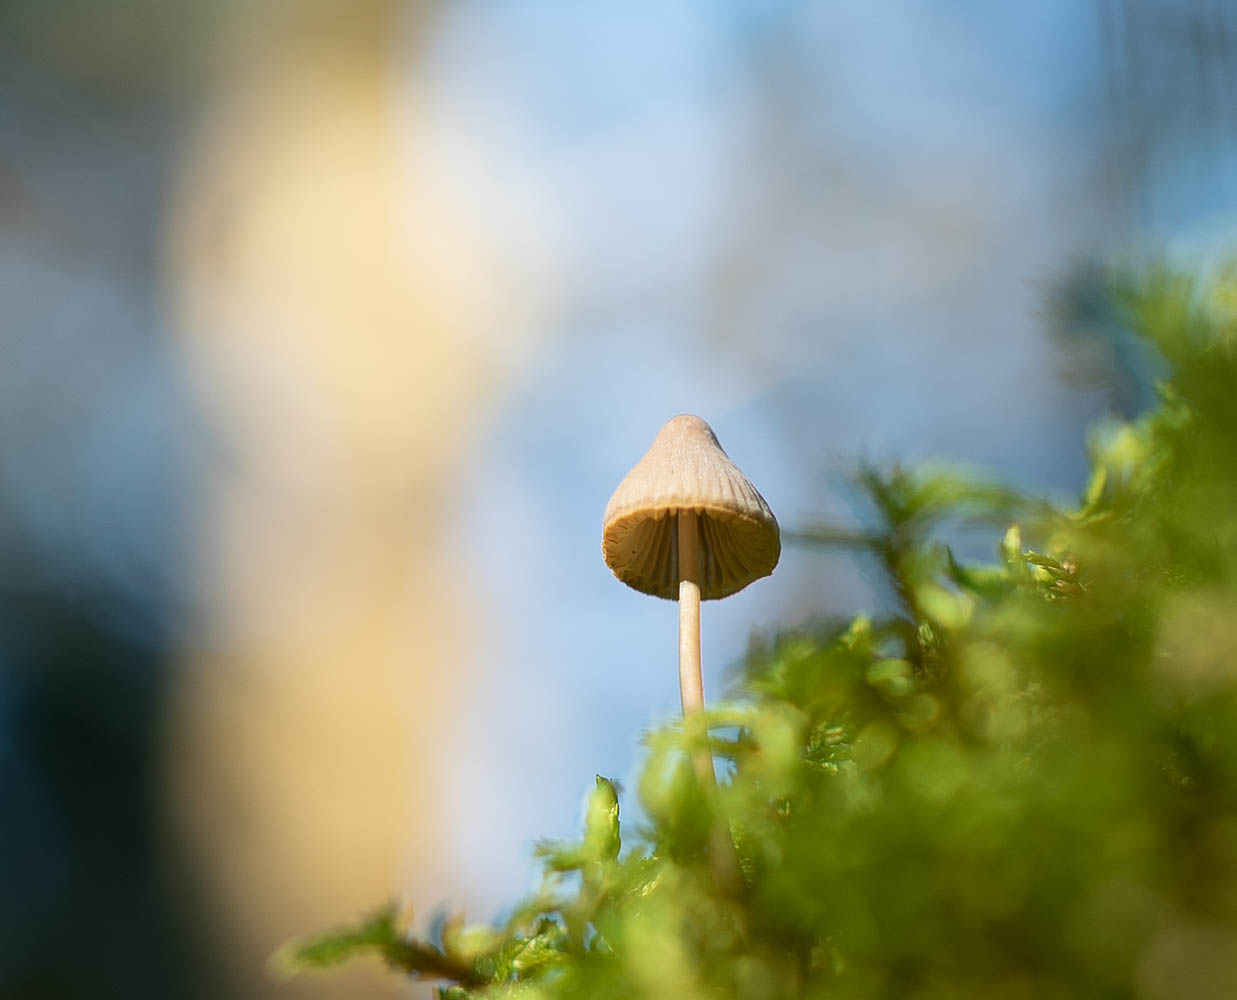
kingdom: Fungi
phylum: Basidiomycota
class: Agaricomycetes
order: Agaricales
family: Mycenaceae
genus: Mycena
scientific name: Mycena
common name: huesvamp
